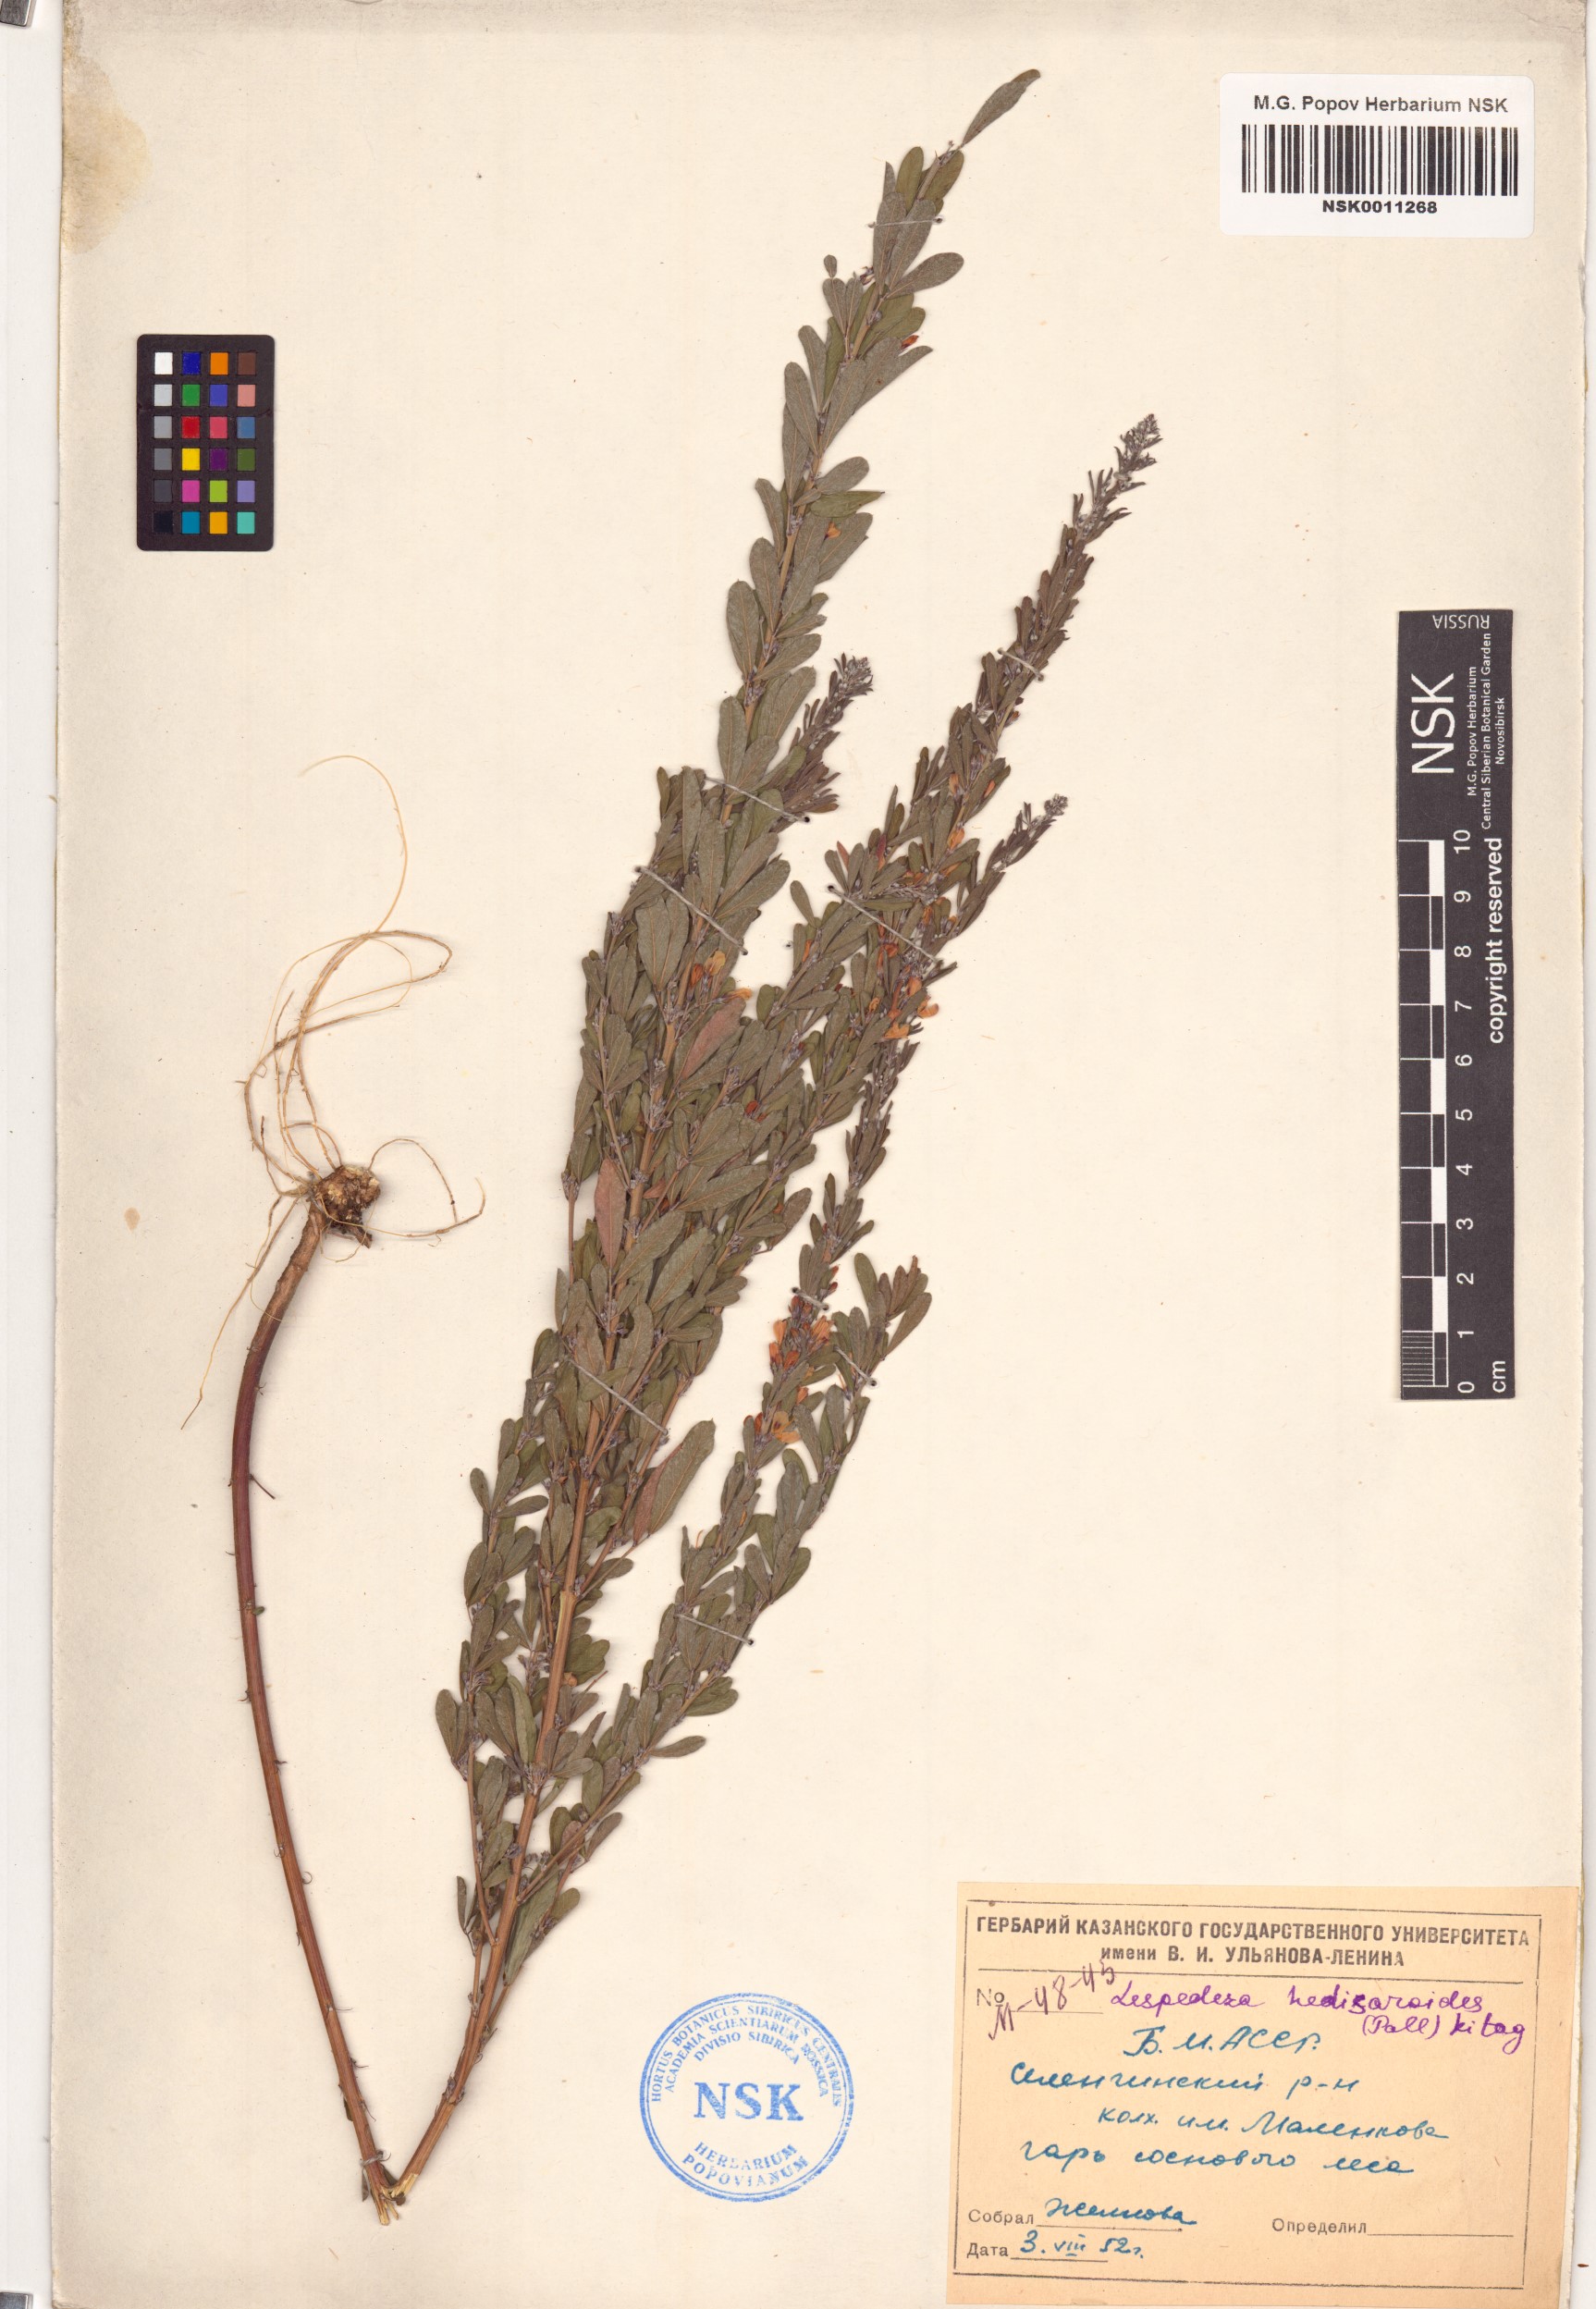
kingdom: Plantae
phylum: Tracheophyta
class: Magnoliopsida
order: Fabales
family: Fabaceae
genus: Lespedeza
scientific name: Lespedeza juncea
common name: Siberian lespedeza
